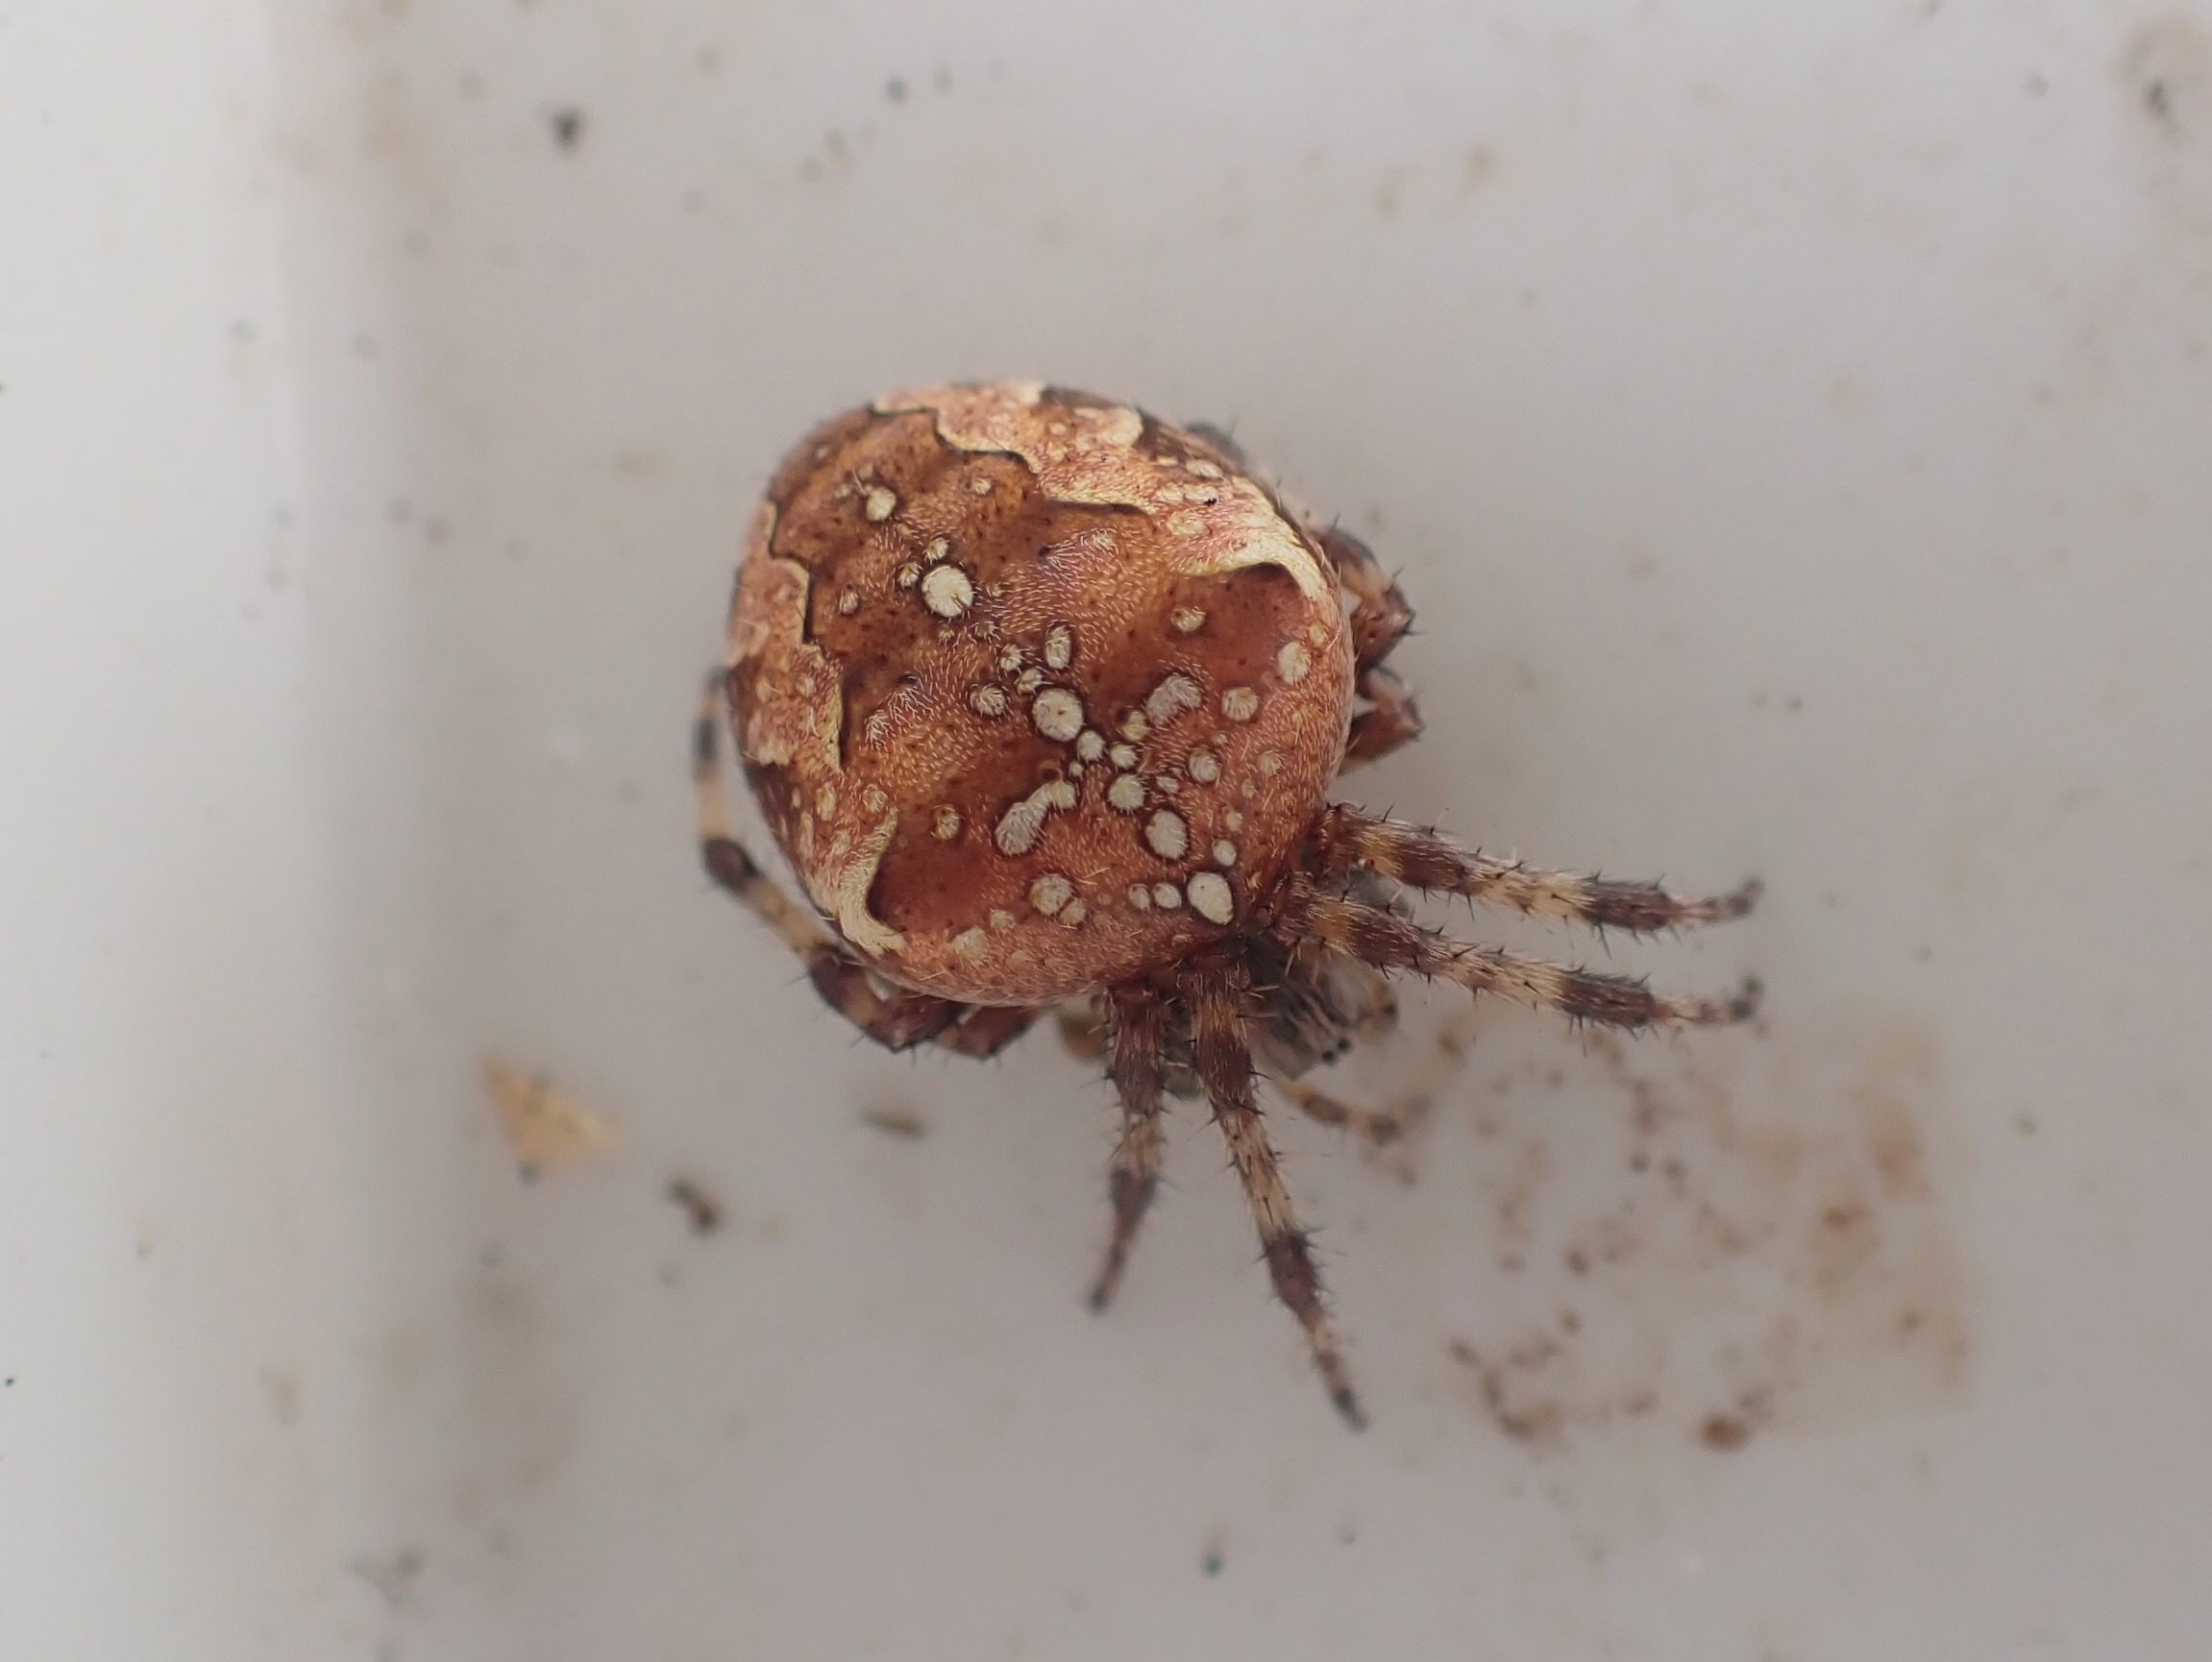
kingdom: Animalia
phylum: Arthropoda
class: Arachnida
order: Araneae
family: Araneidae
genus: Araneus
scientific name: Araneus diadematus
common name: Korsedderkop
